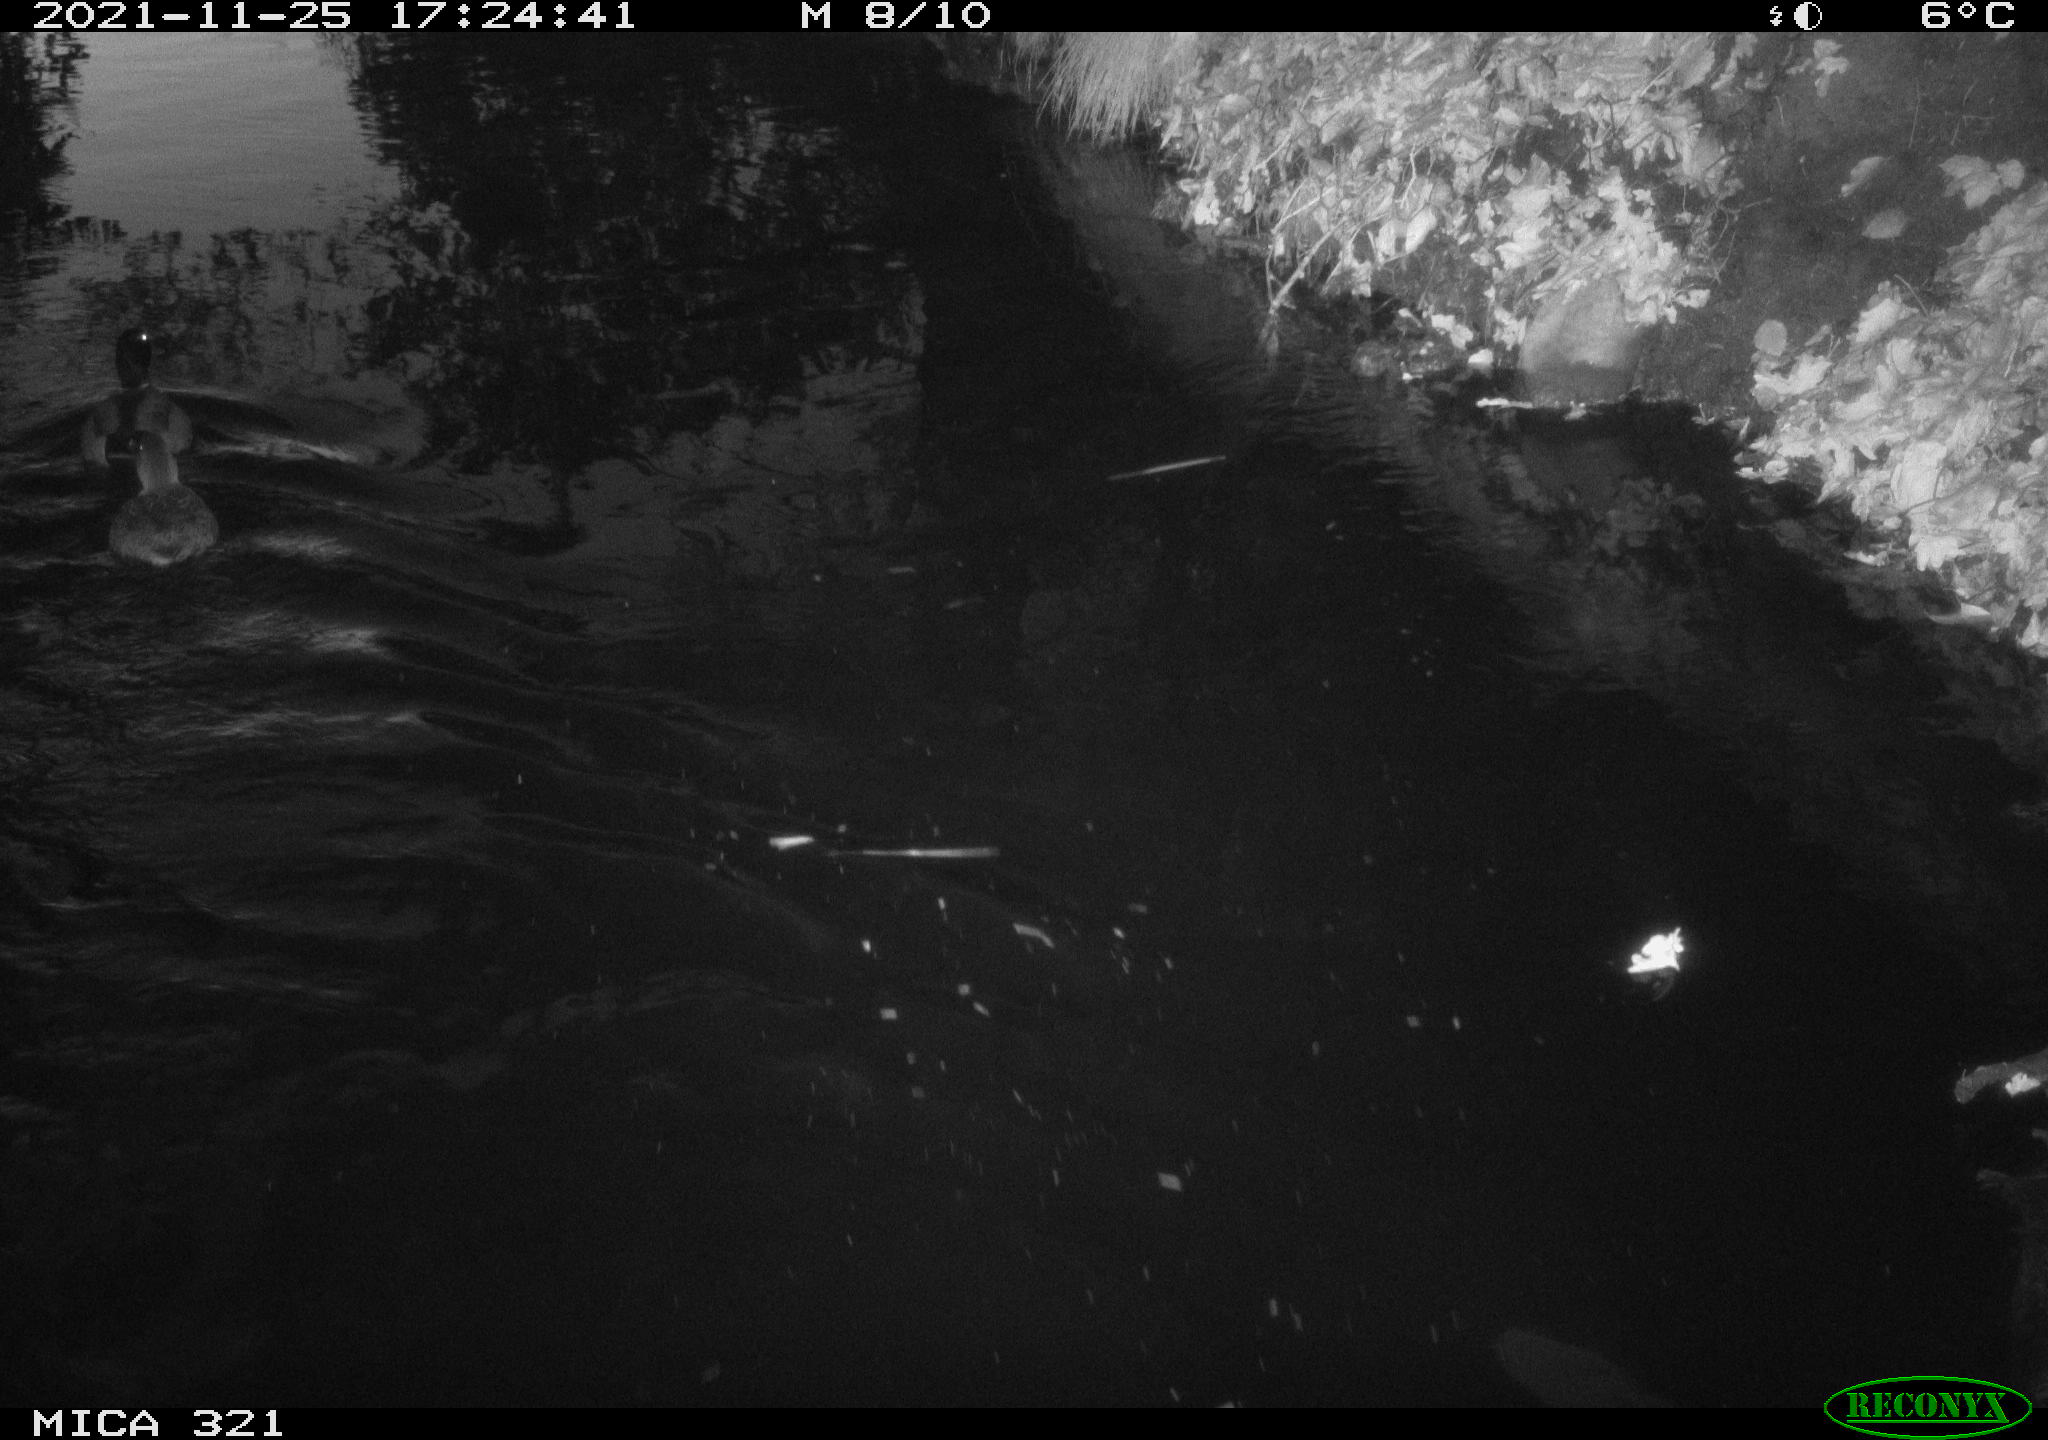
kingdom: Animalia
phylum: Chordata
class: Aves
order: Anseriformes
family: Anatidae
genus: Anas
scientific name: Anas platyrhynchos
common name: Mallard
